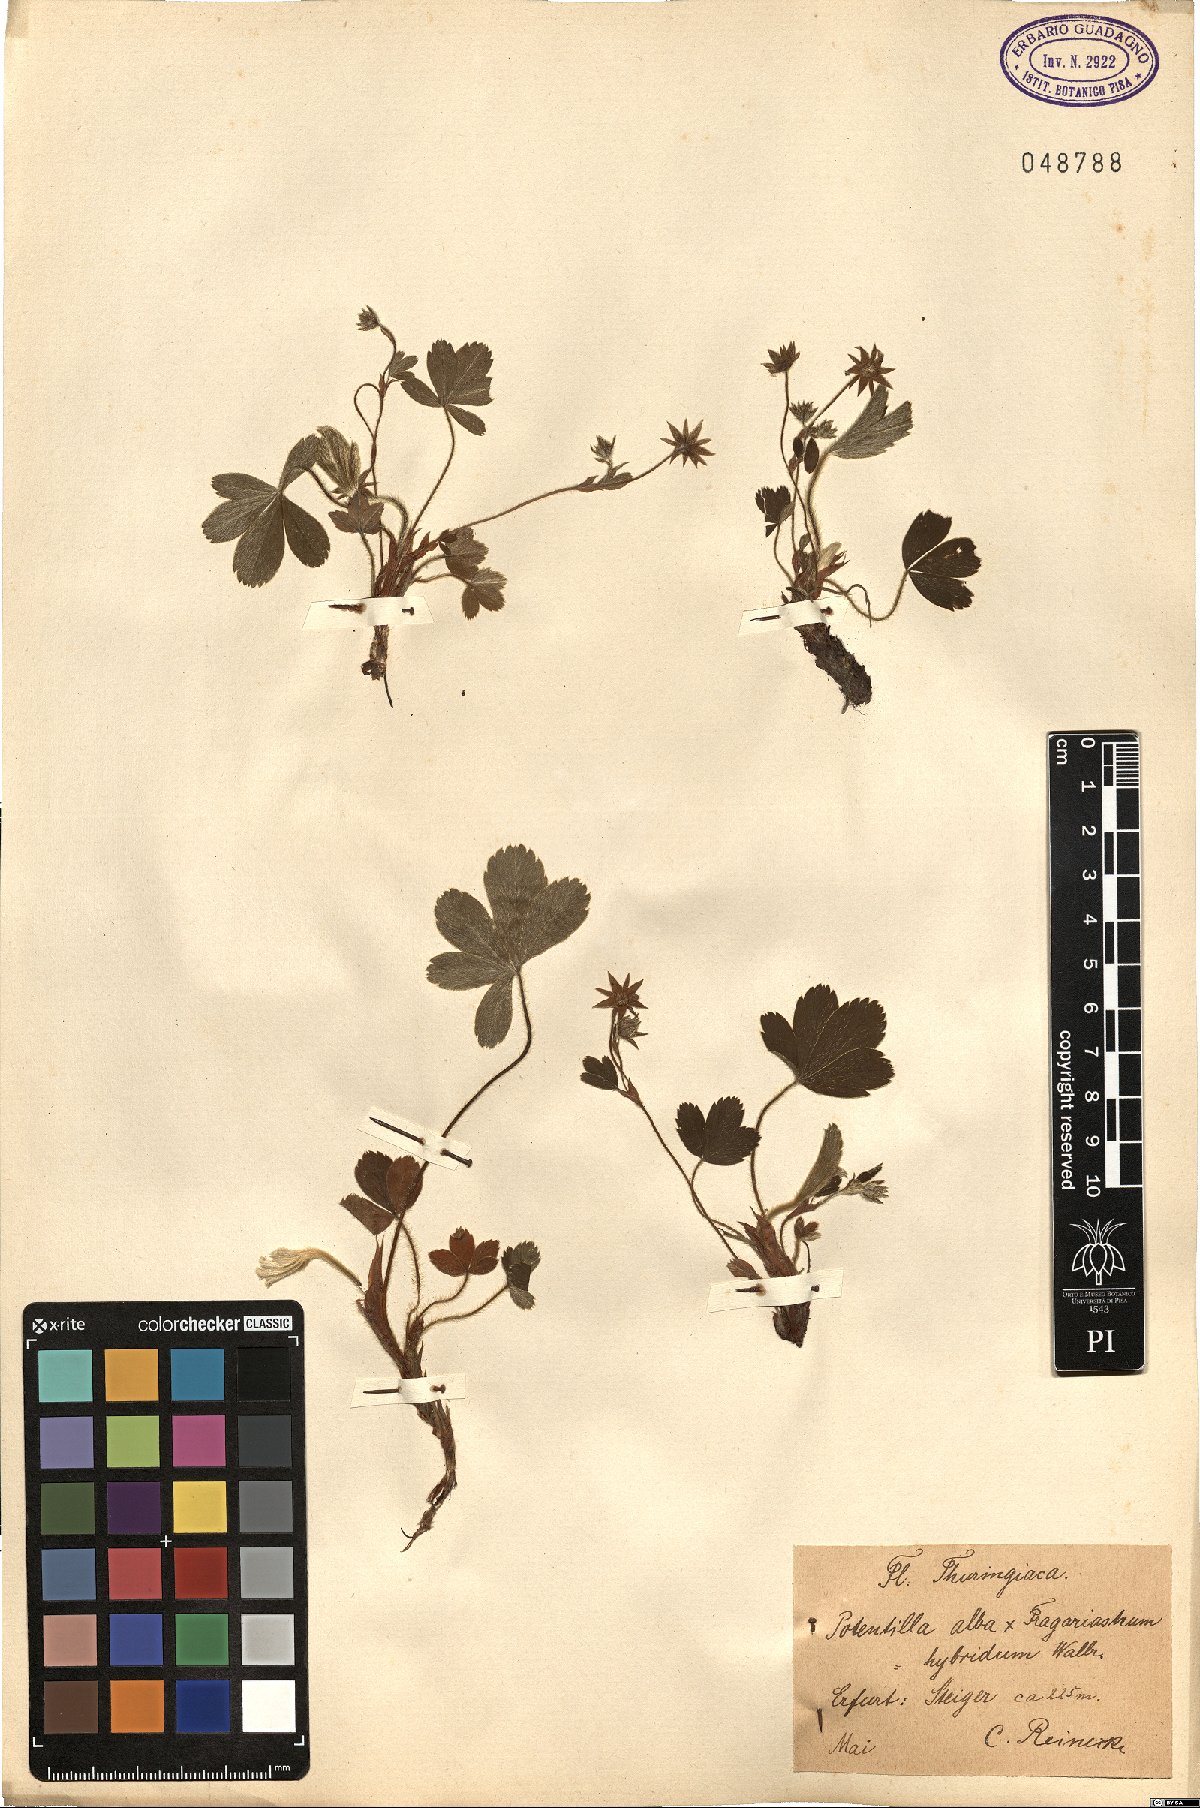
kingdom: Plantae
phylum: Tracheophyta
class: Magnoliopsida
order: Rosales
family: Rosaceae
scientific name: Rosaceae
